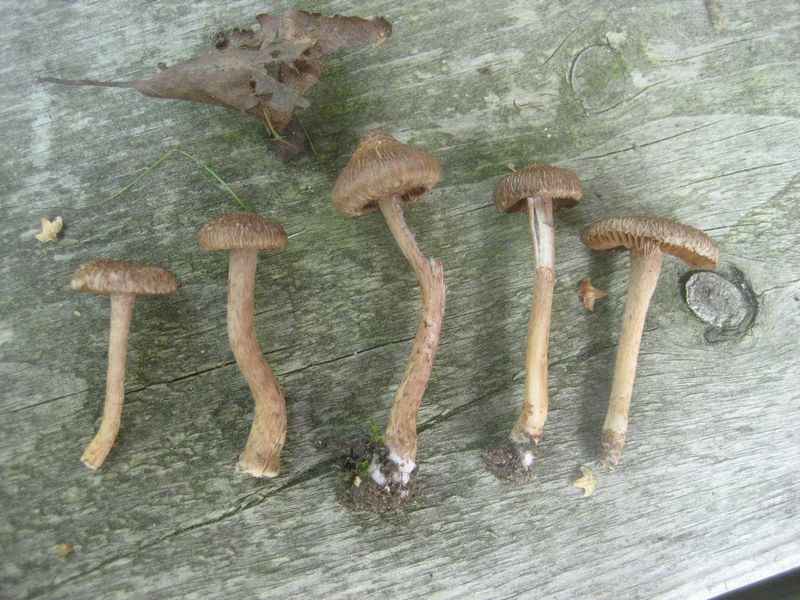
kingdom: Fungi
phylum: Basidiomycota
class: Agaricomycetes
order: Agaricales
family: Inocybaceae
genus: Inocybe
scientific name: Inocybe cincinnata
